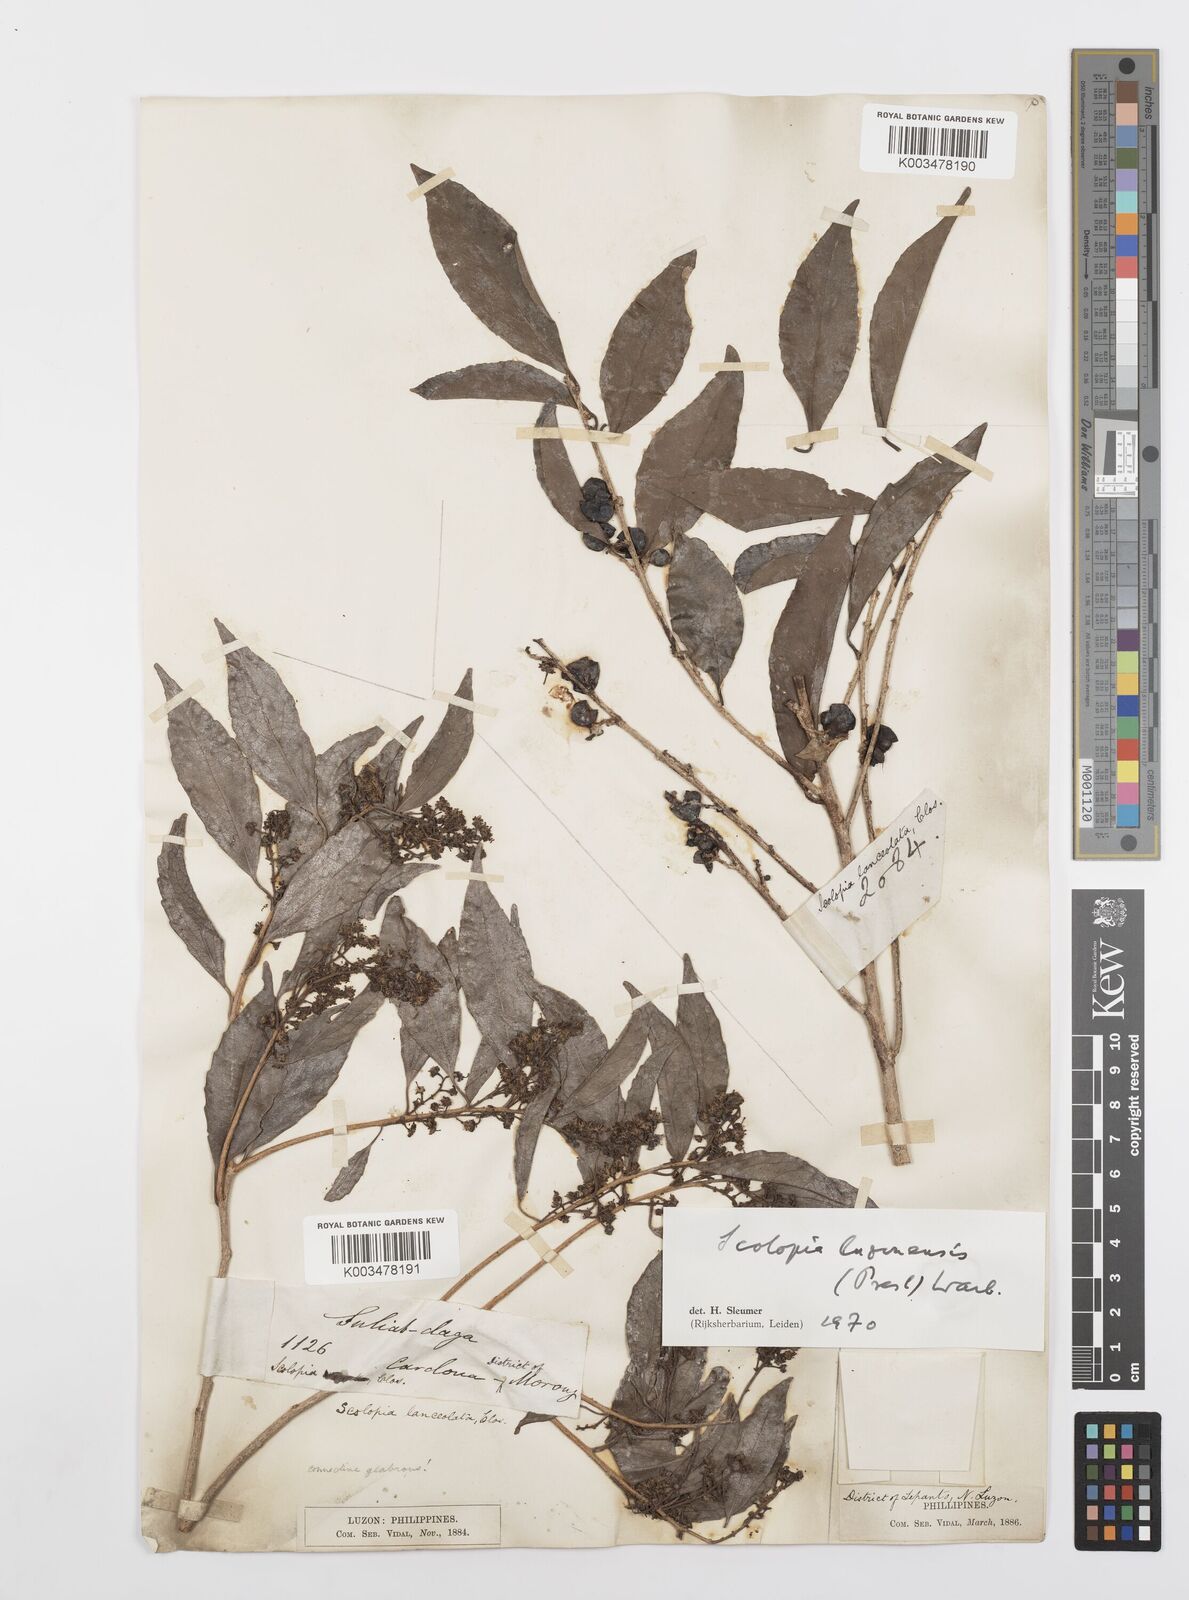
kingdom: Plantae
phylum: Tracheophyta
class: Magnoliopsida
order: Malpighiales
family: Salicaceae
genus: Scolopia
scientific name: Scolopia luzonensis
